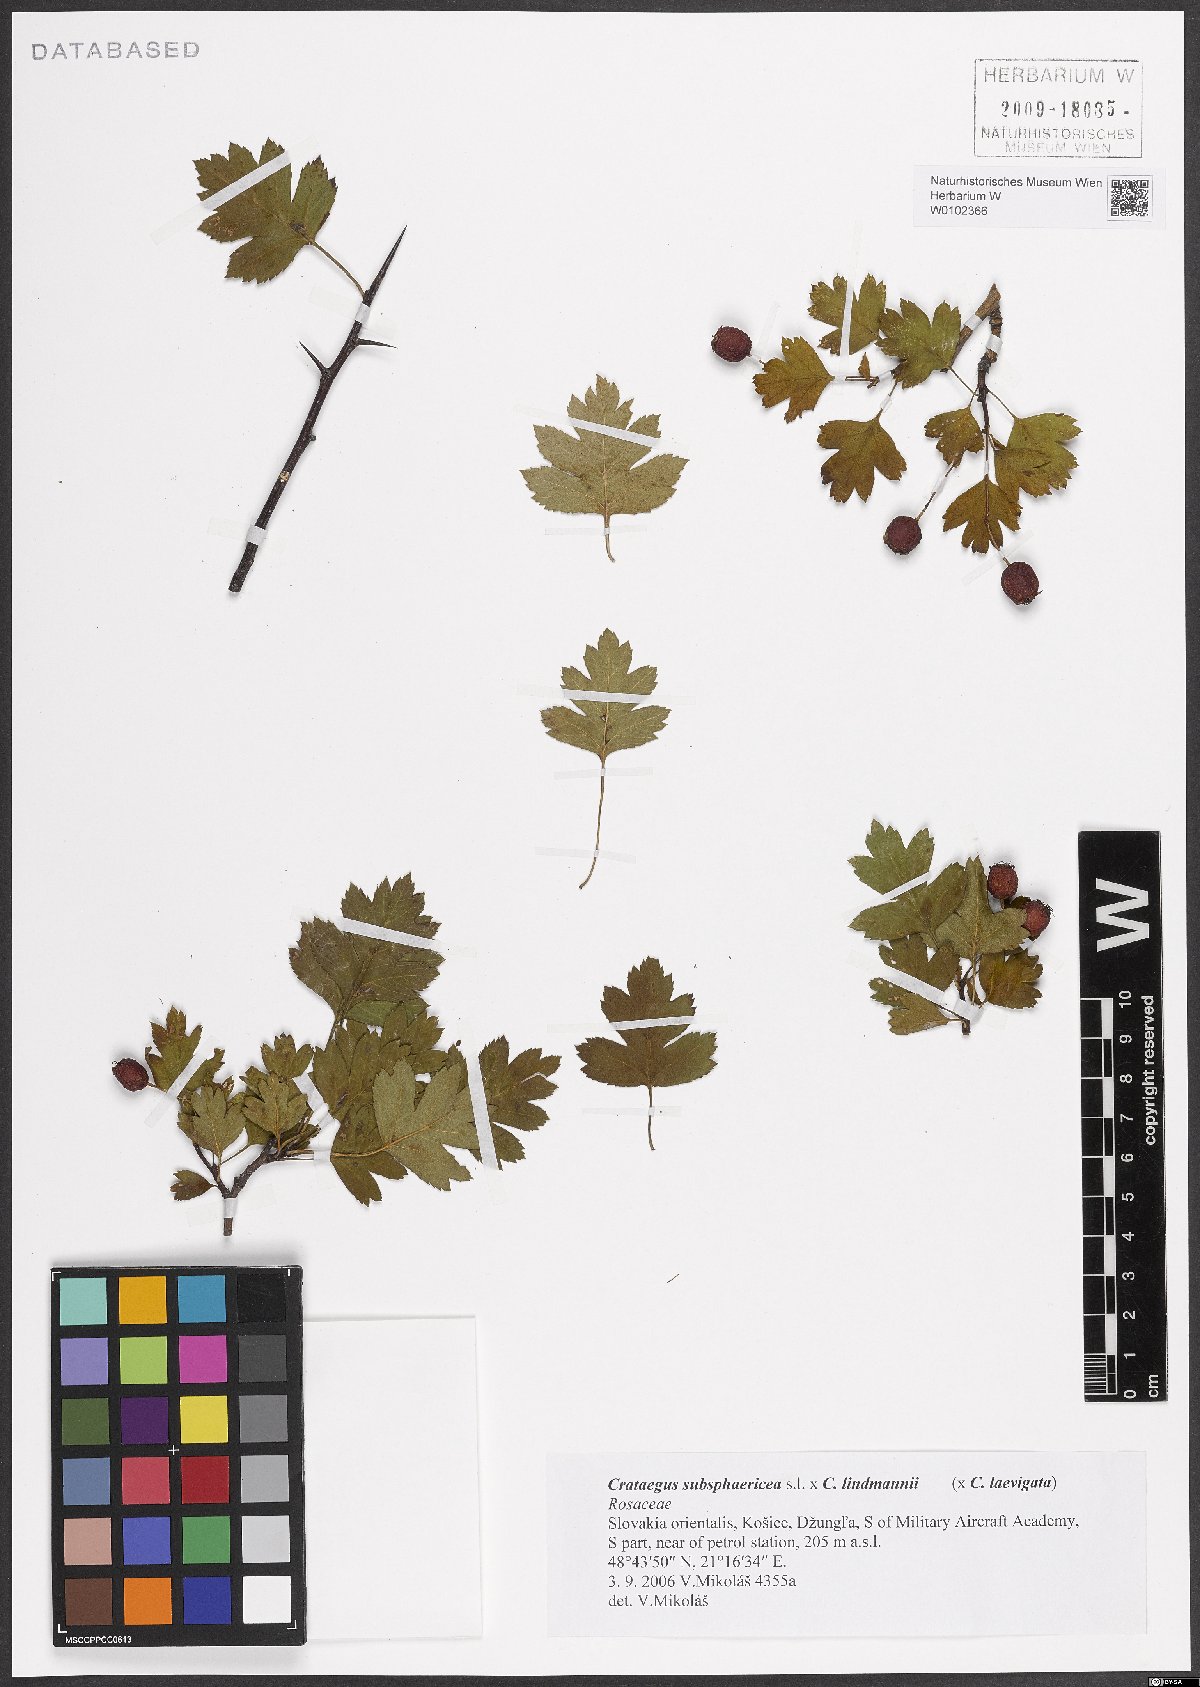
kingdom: Plantae
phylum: Tracheophyta
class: Magnoliopsida
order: Rosales
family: Rosaceae
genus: Crataegus
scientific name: Crataegus lindmanii
